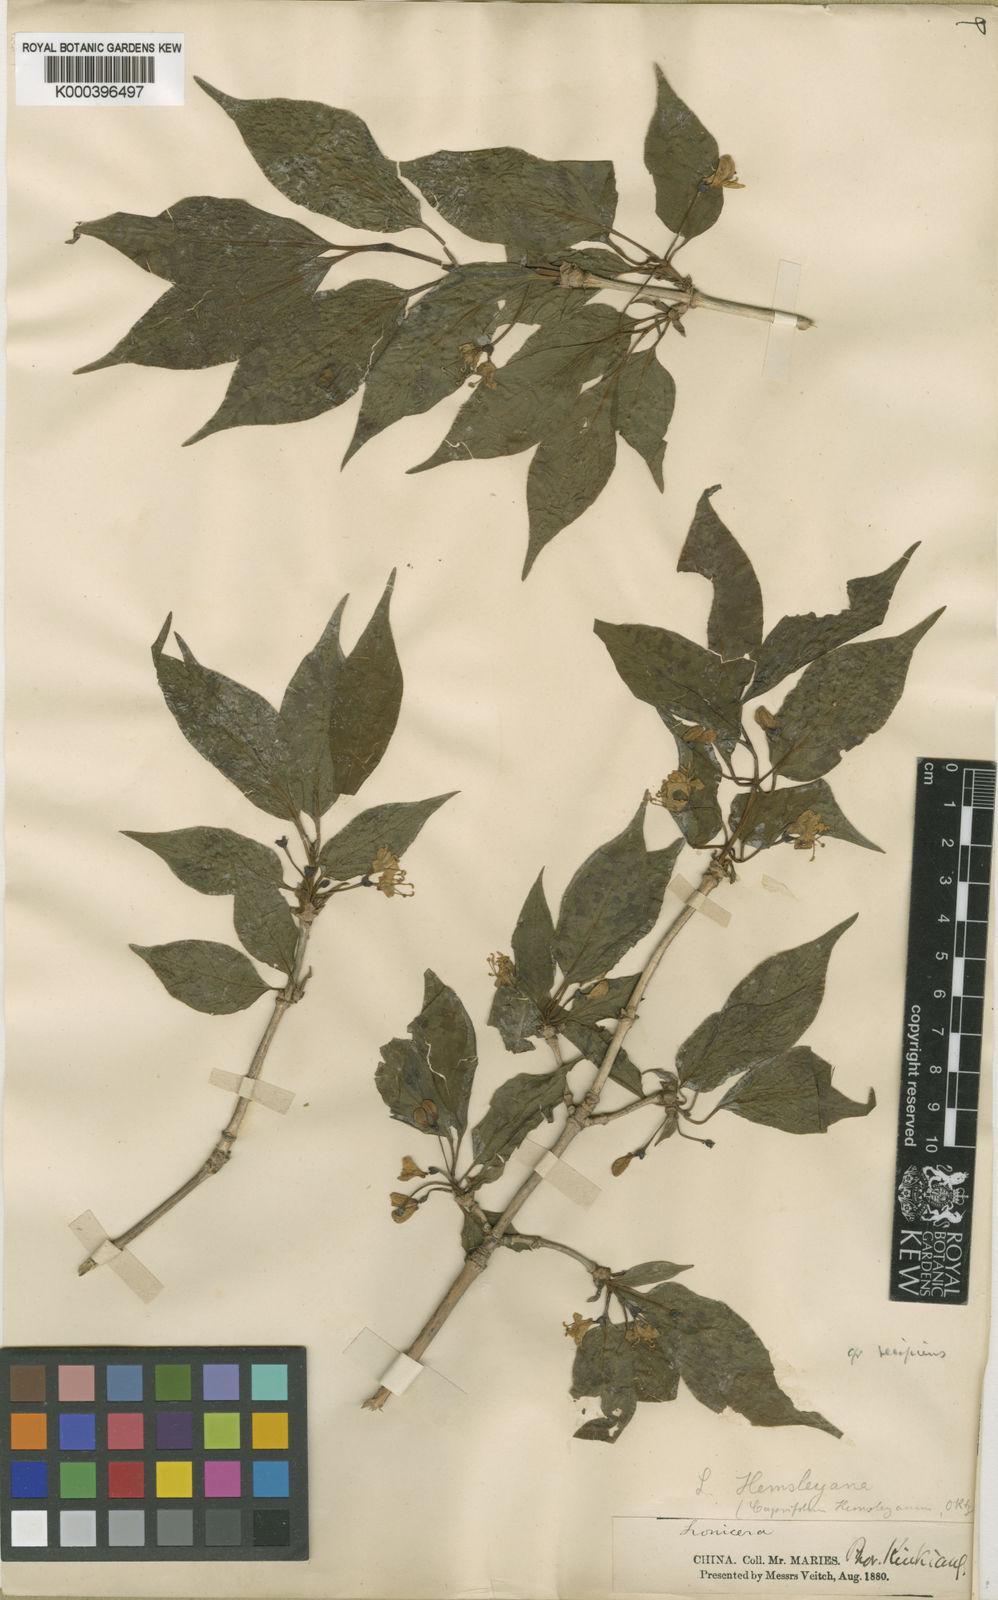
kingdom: Plantae
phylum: Tracheophyta
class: Magnoliopsida
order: Dipsacales
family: Caprifoliaceae
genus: Lonicera
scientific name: Lonicera webbiana
